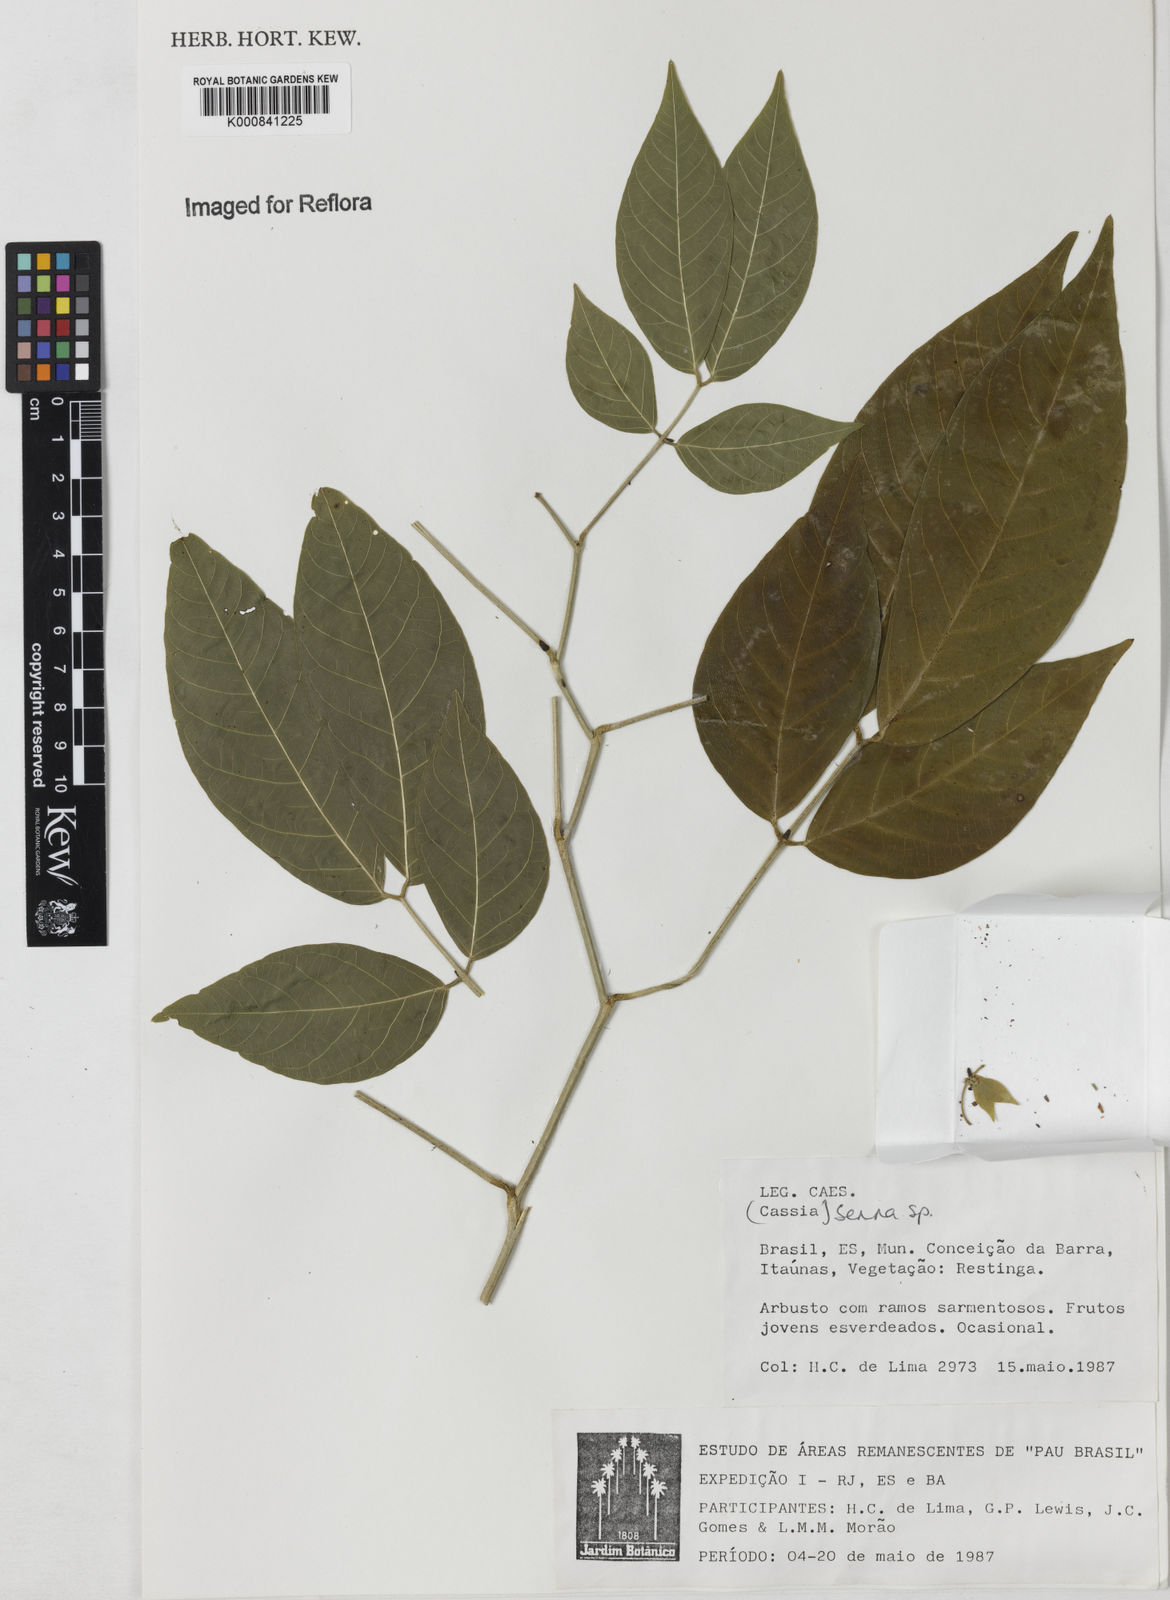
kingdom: Plantae
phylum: Tracheophyta
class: Magnoliopsida
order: Fabales
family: Fabaceae
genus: Senna
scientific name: Senna affinis
